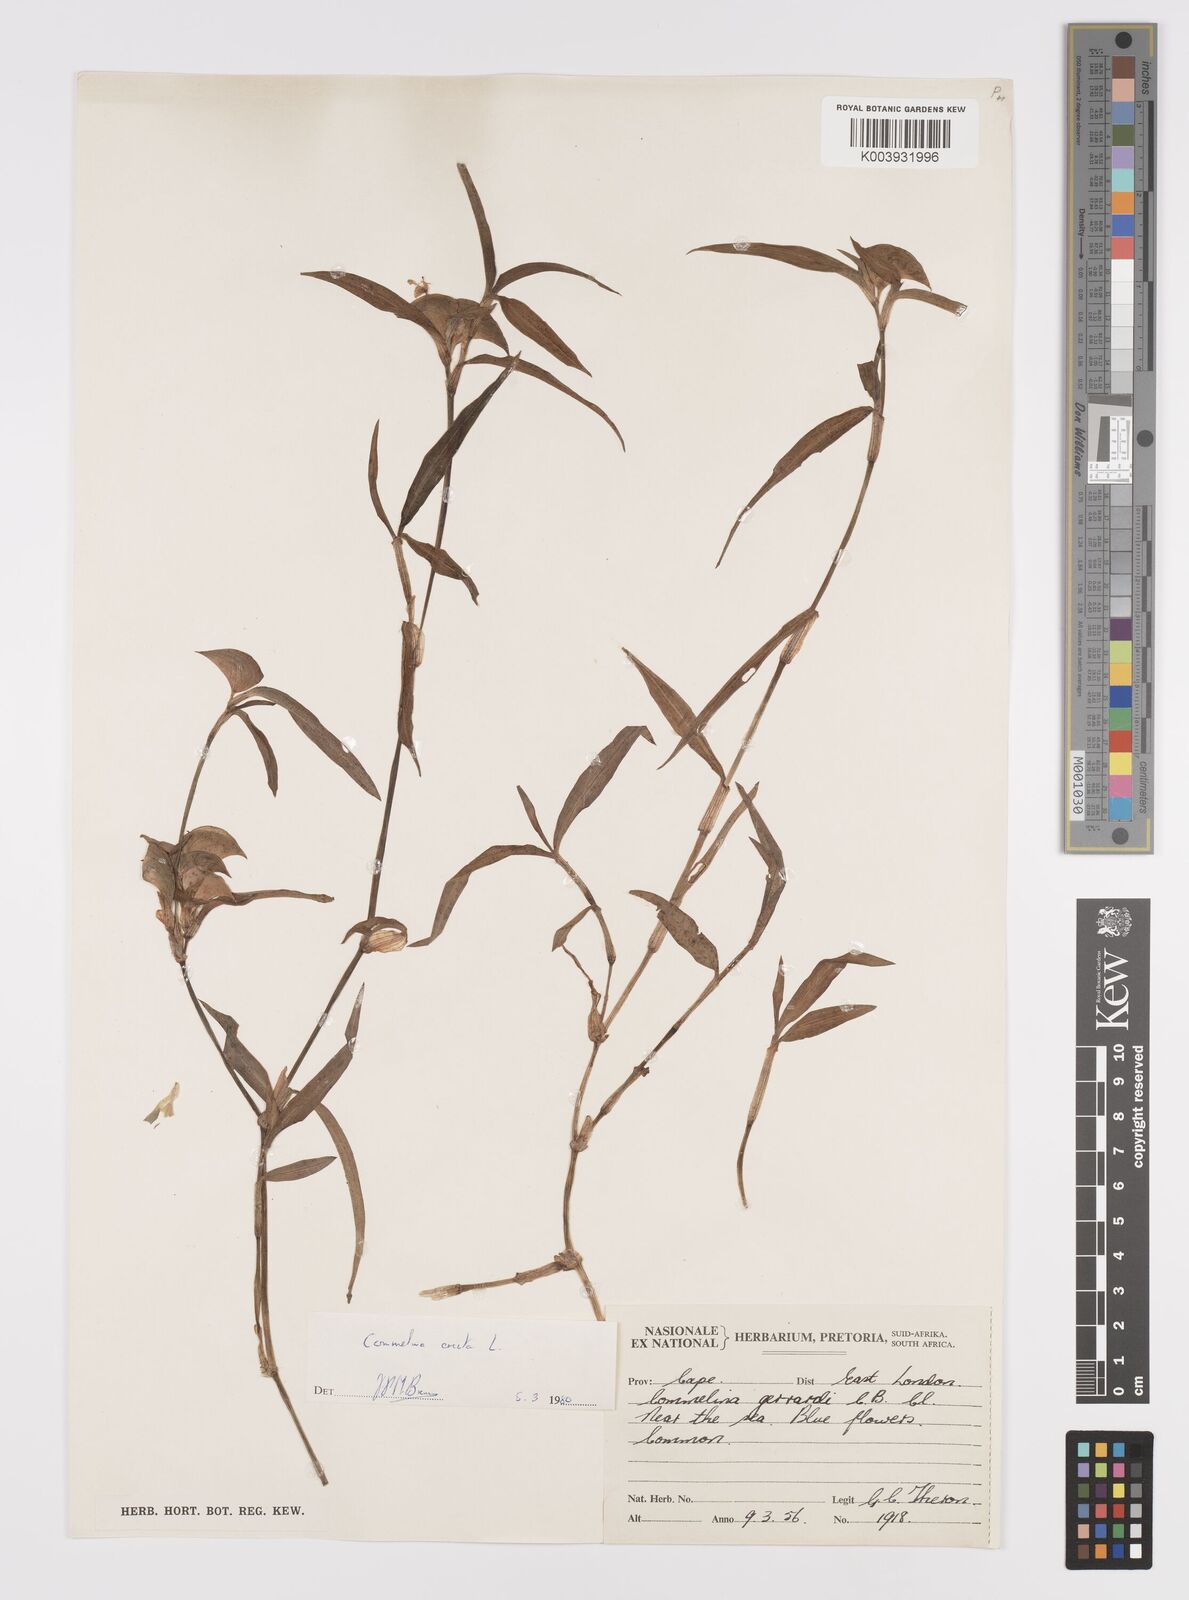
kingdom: Plantae
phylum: Tracheophyta
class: Liliopsida
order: Commelinales
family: Commelinaceae
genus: Commelina
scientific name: Commelina erecta
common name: Blousel blommetjie
